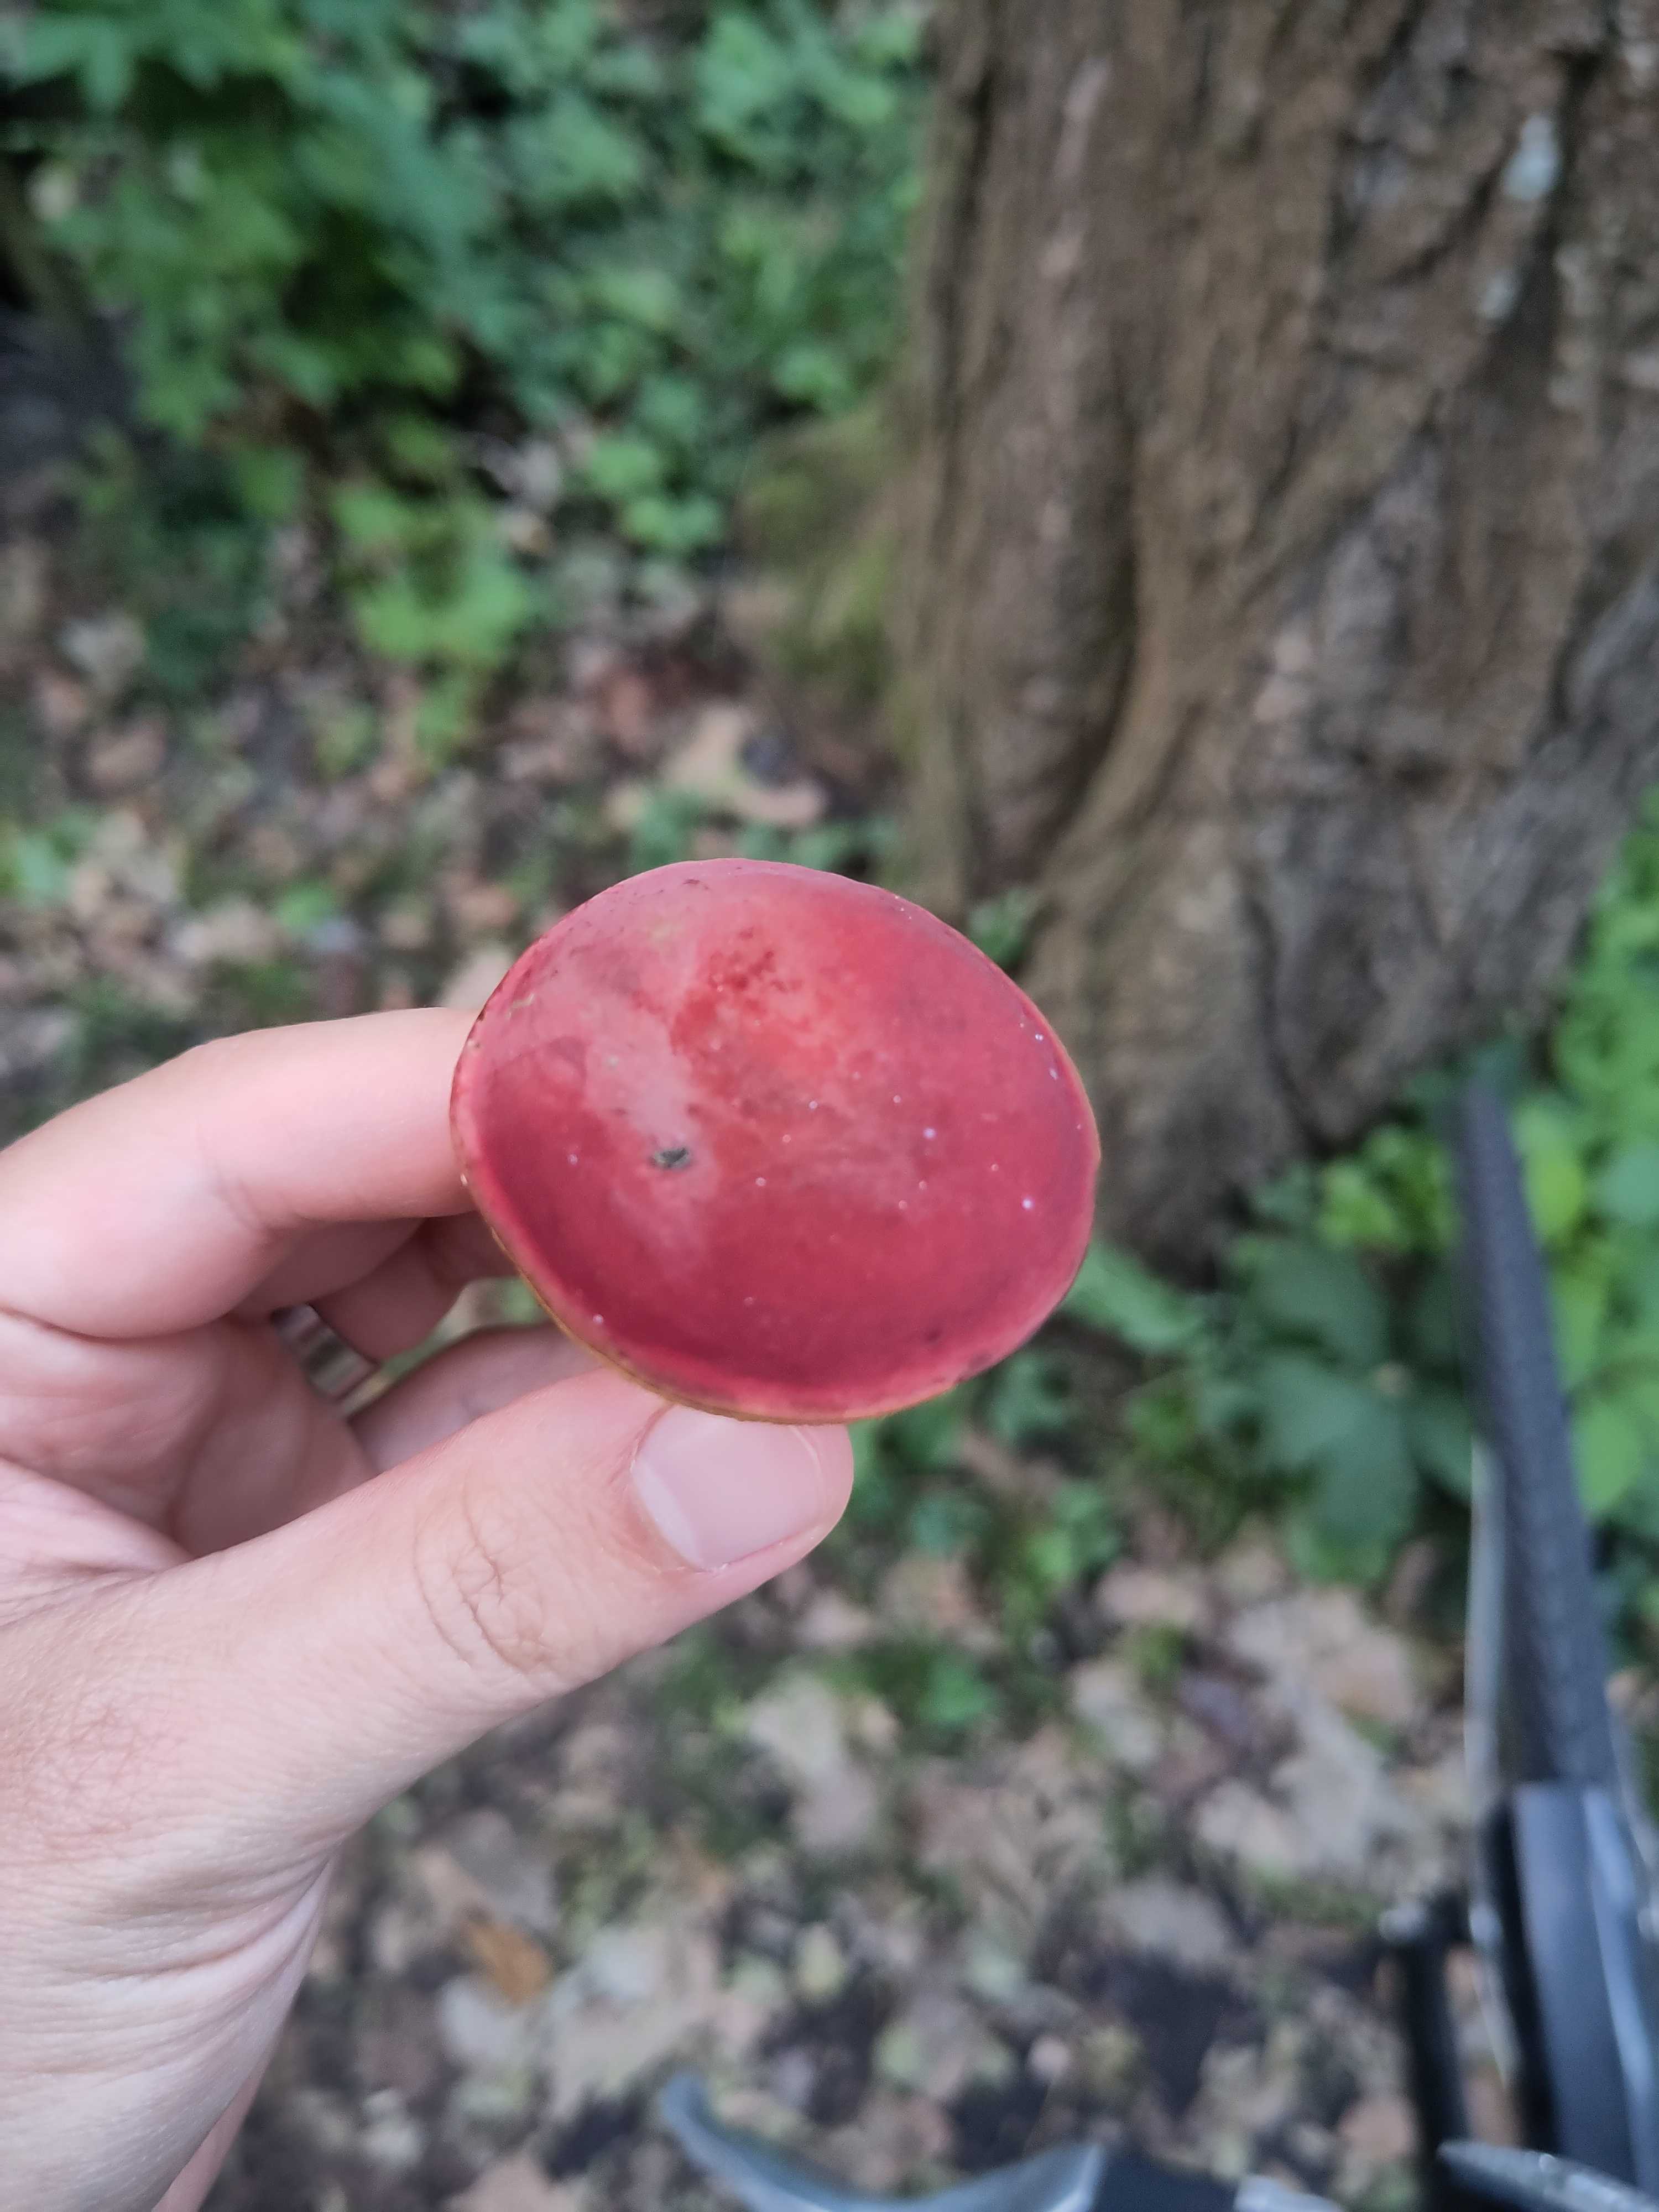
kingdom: Fungi
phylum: Basidiomycota
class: Agaricomycetes
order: Boletales
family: Boletaceae
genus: Hortiboletus
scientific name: Hortiboletus rubellus
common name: blodrød rørhat
